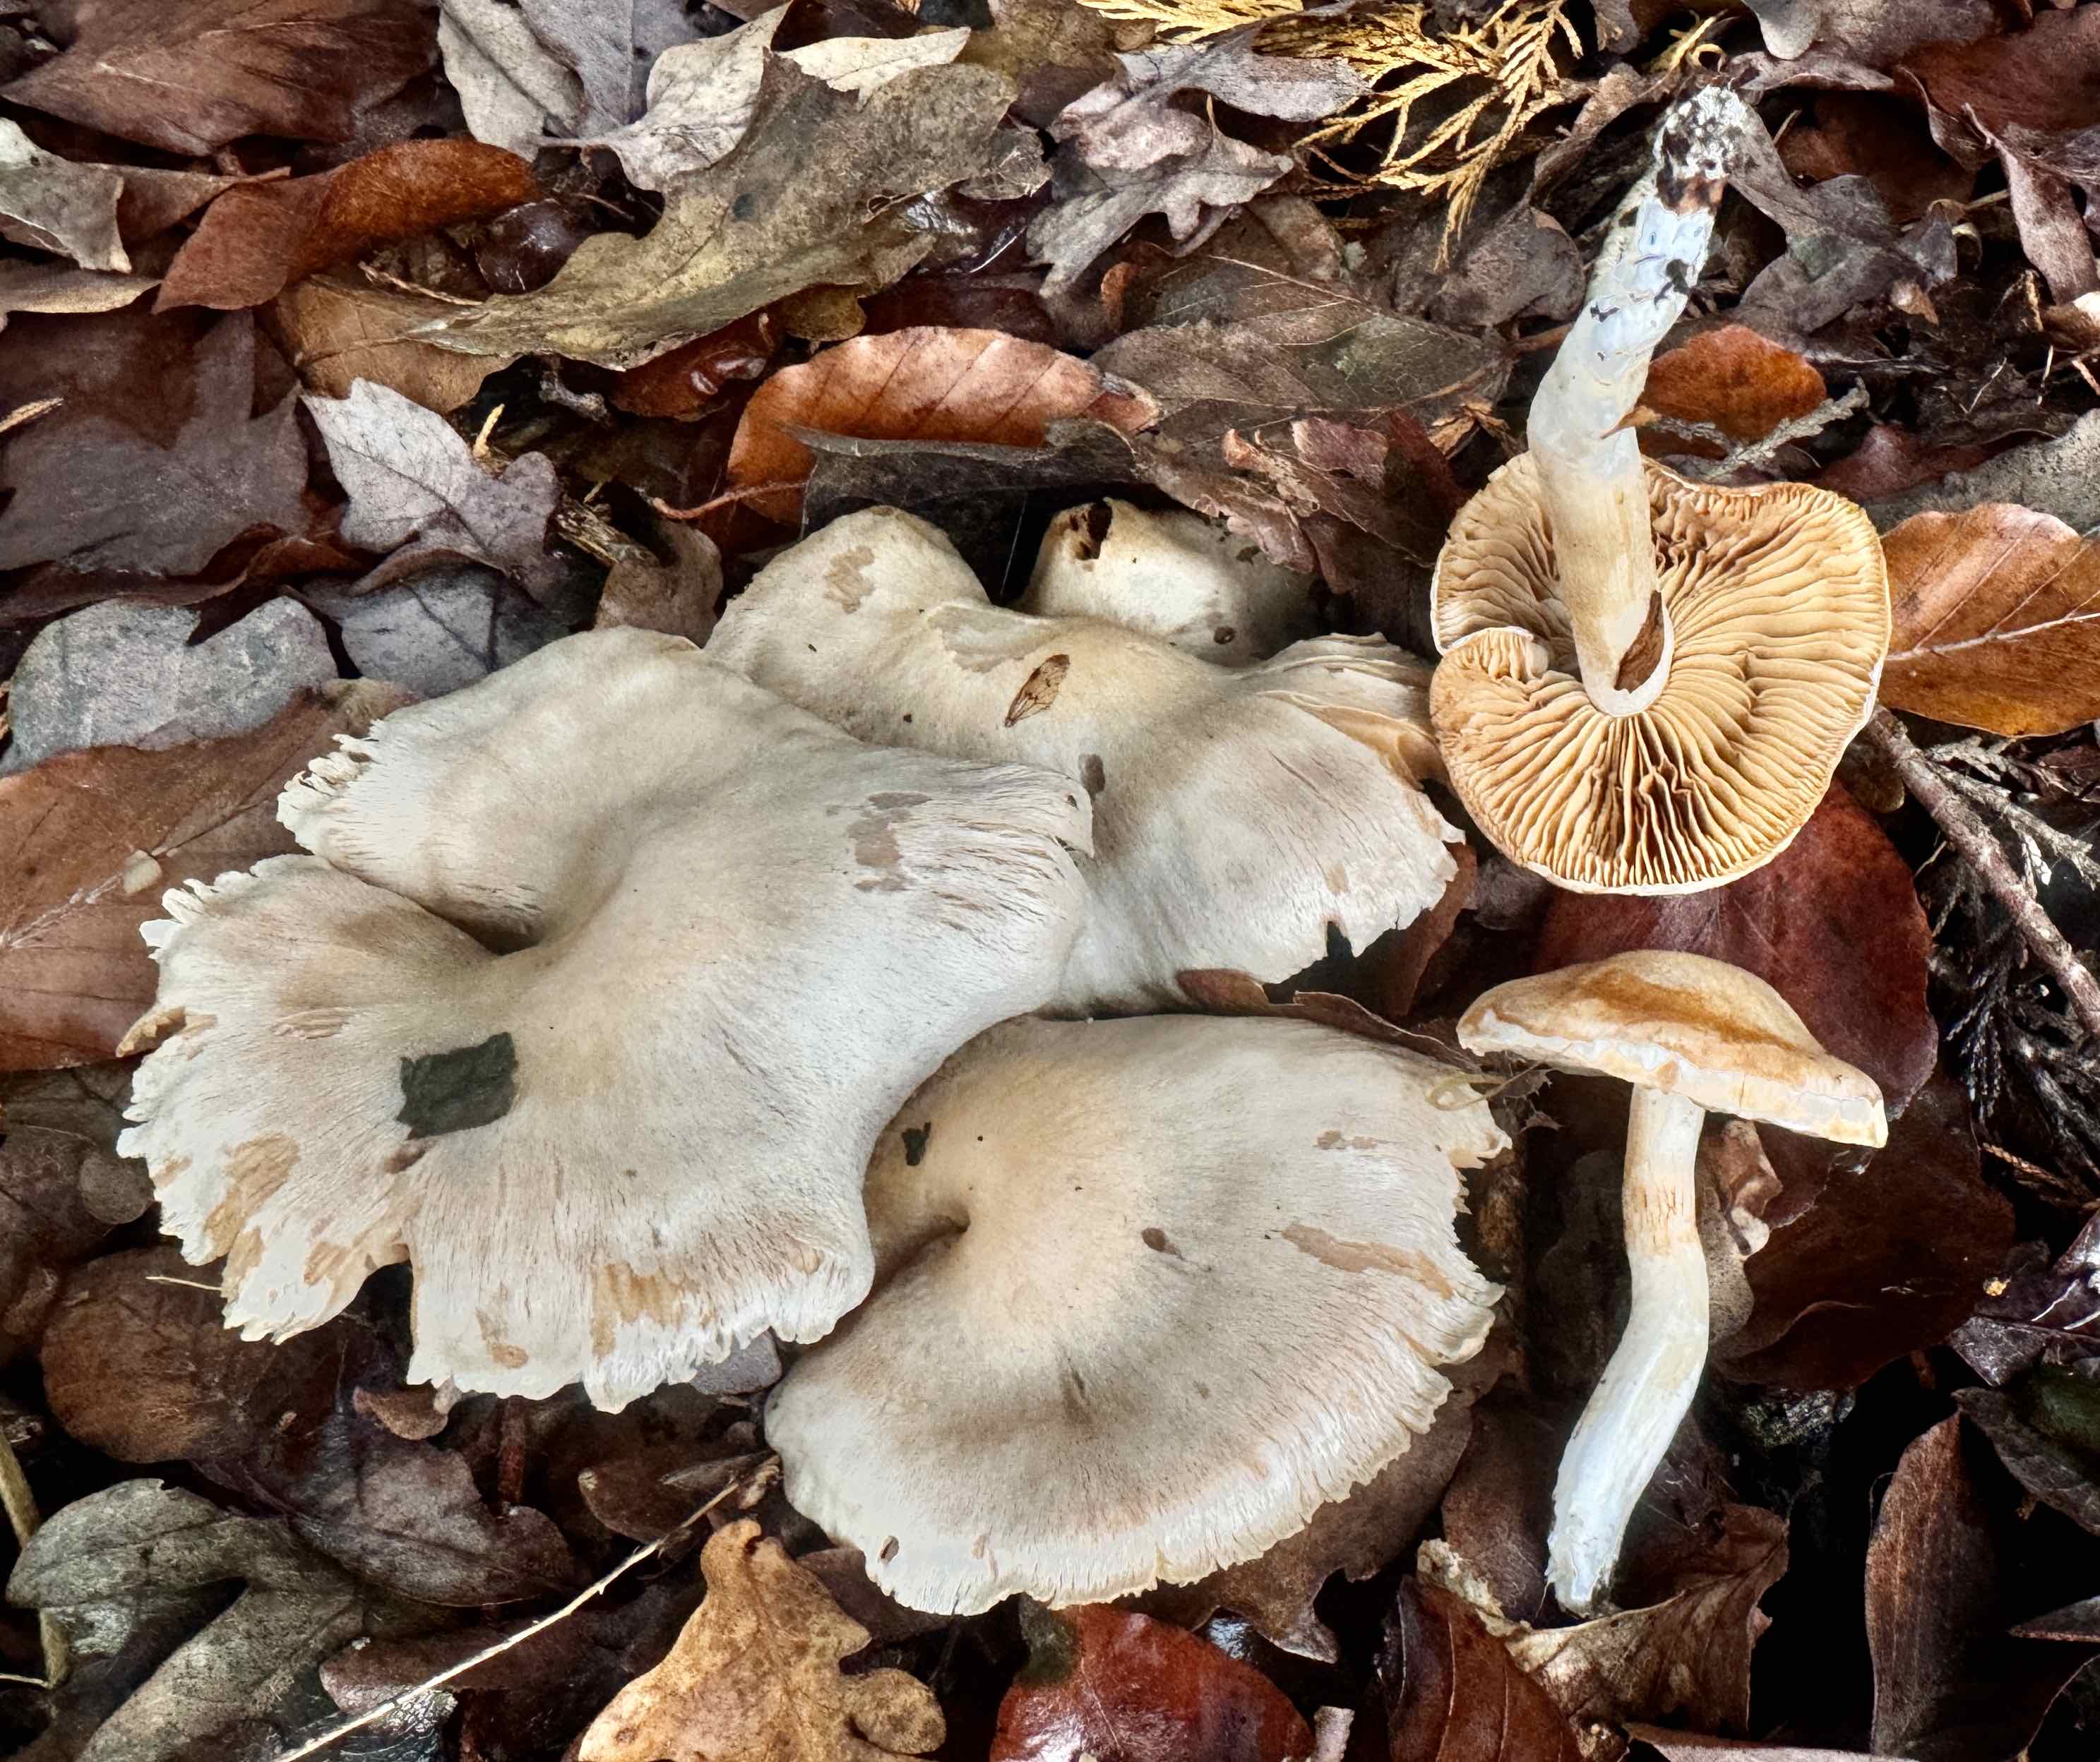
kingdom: Fungi
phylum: Basidiomycota
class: Agaricomycetes
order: Agaricales
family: Cortinariaceae
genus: Thaxterogaster
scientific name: Thaxterogaster leucoluteolus
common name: isabella slørhat
